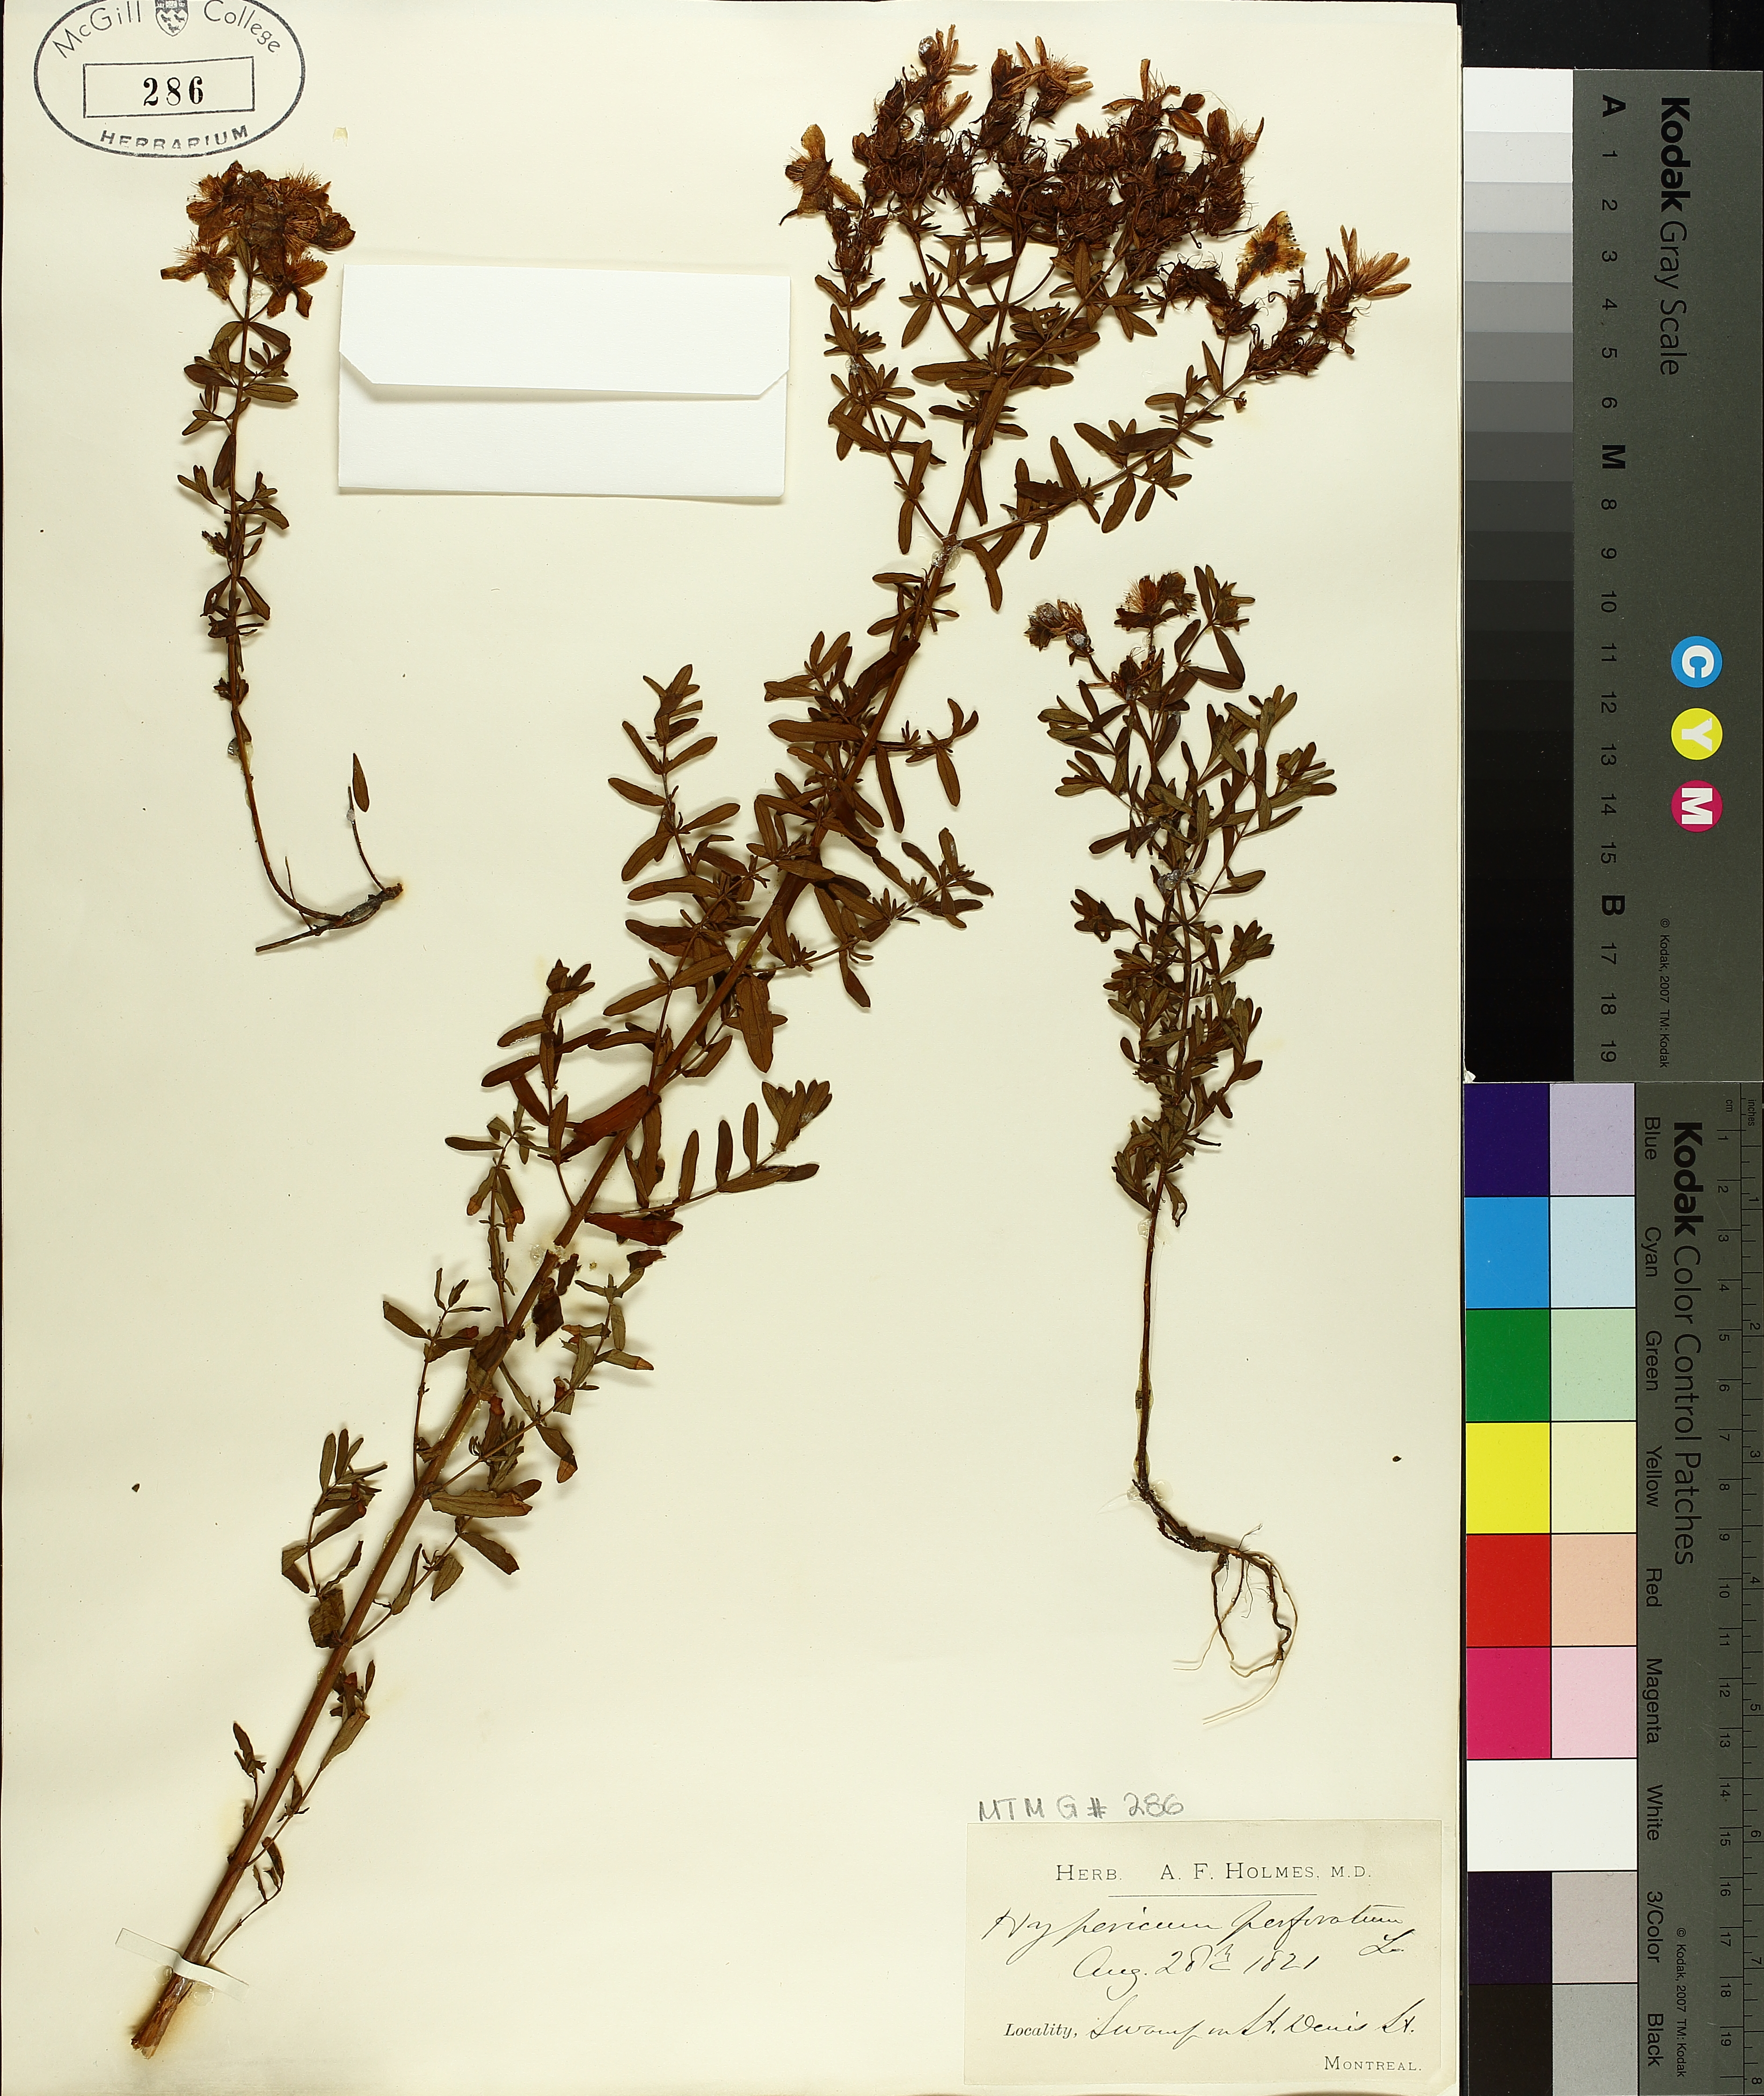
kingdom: Plantae
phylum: Tracheophyta
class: Magnoliopsida
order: Malpighiales
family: Hypericaceae
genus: Hypericum
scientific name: Hypericum perforatum
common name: Common st. johnswort
